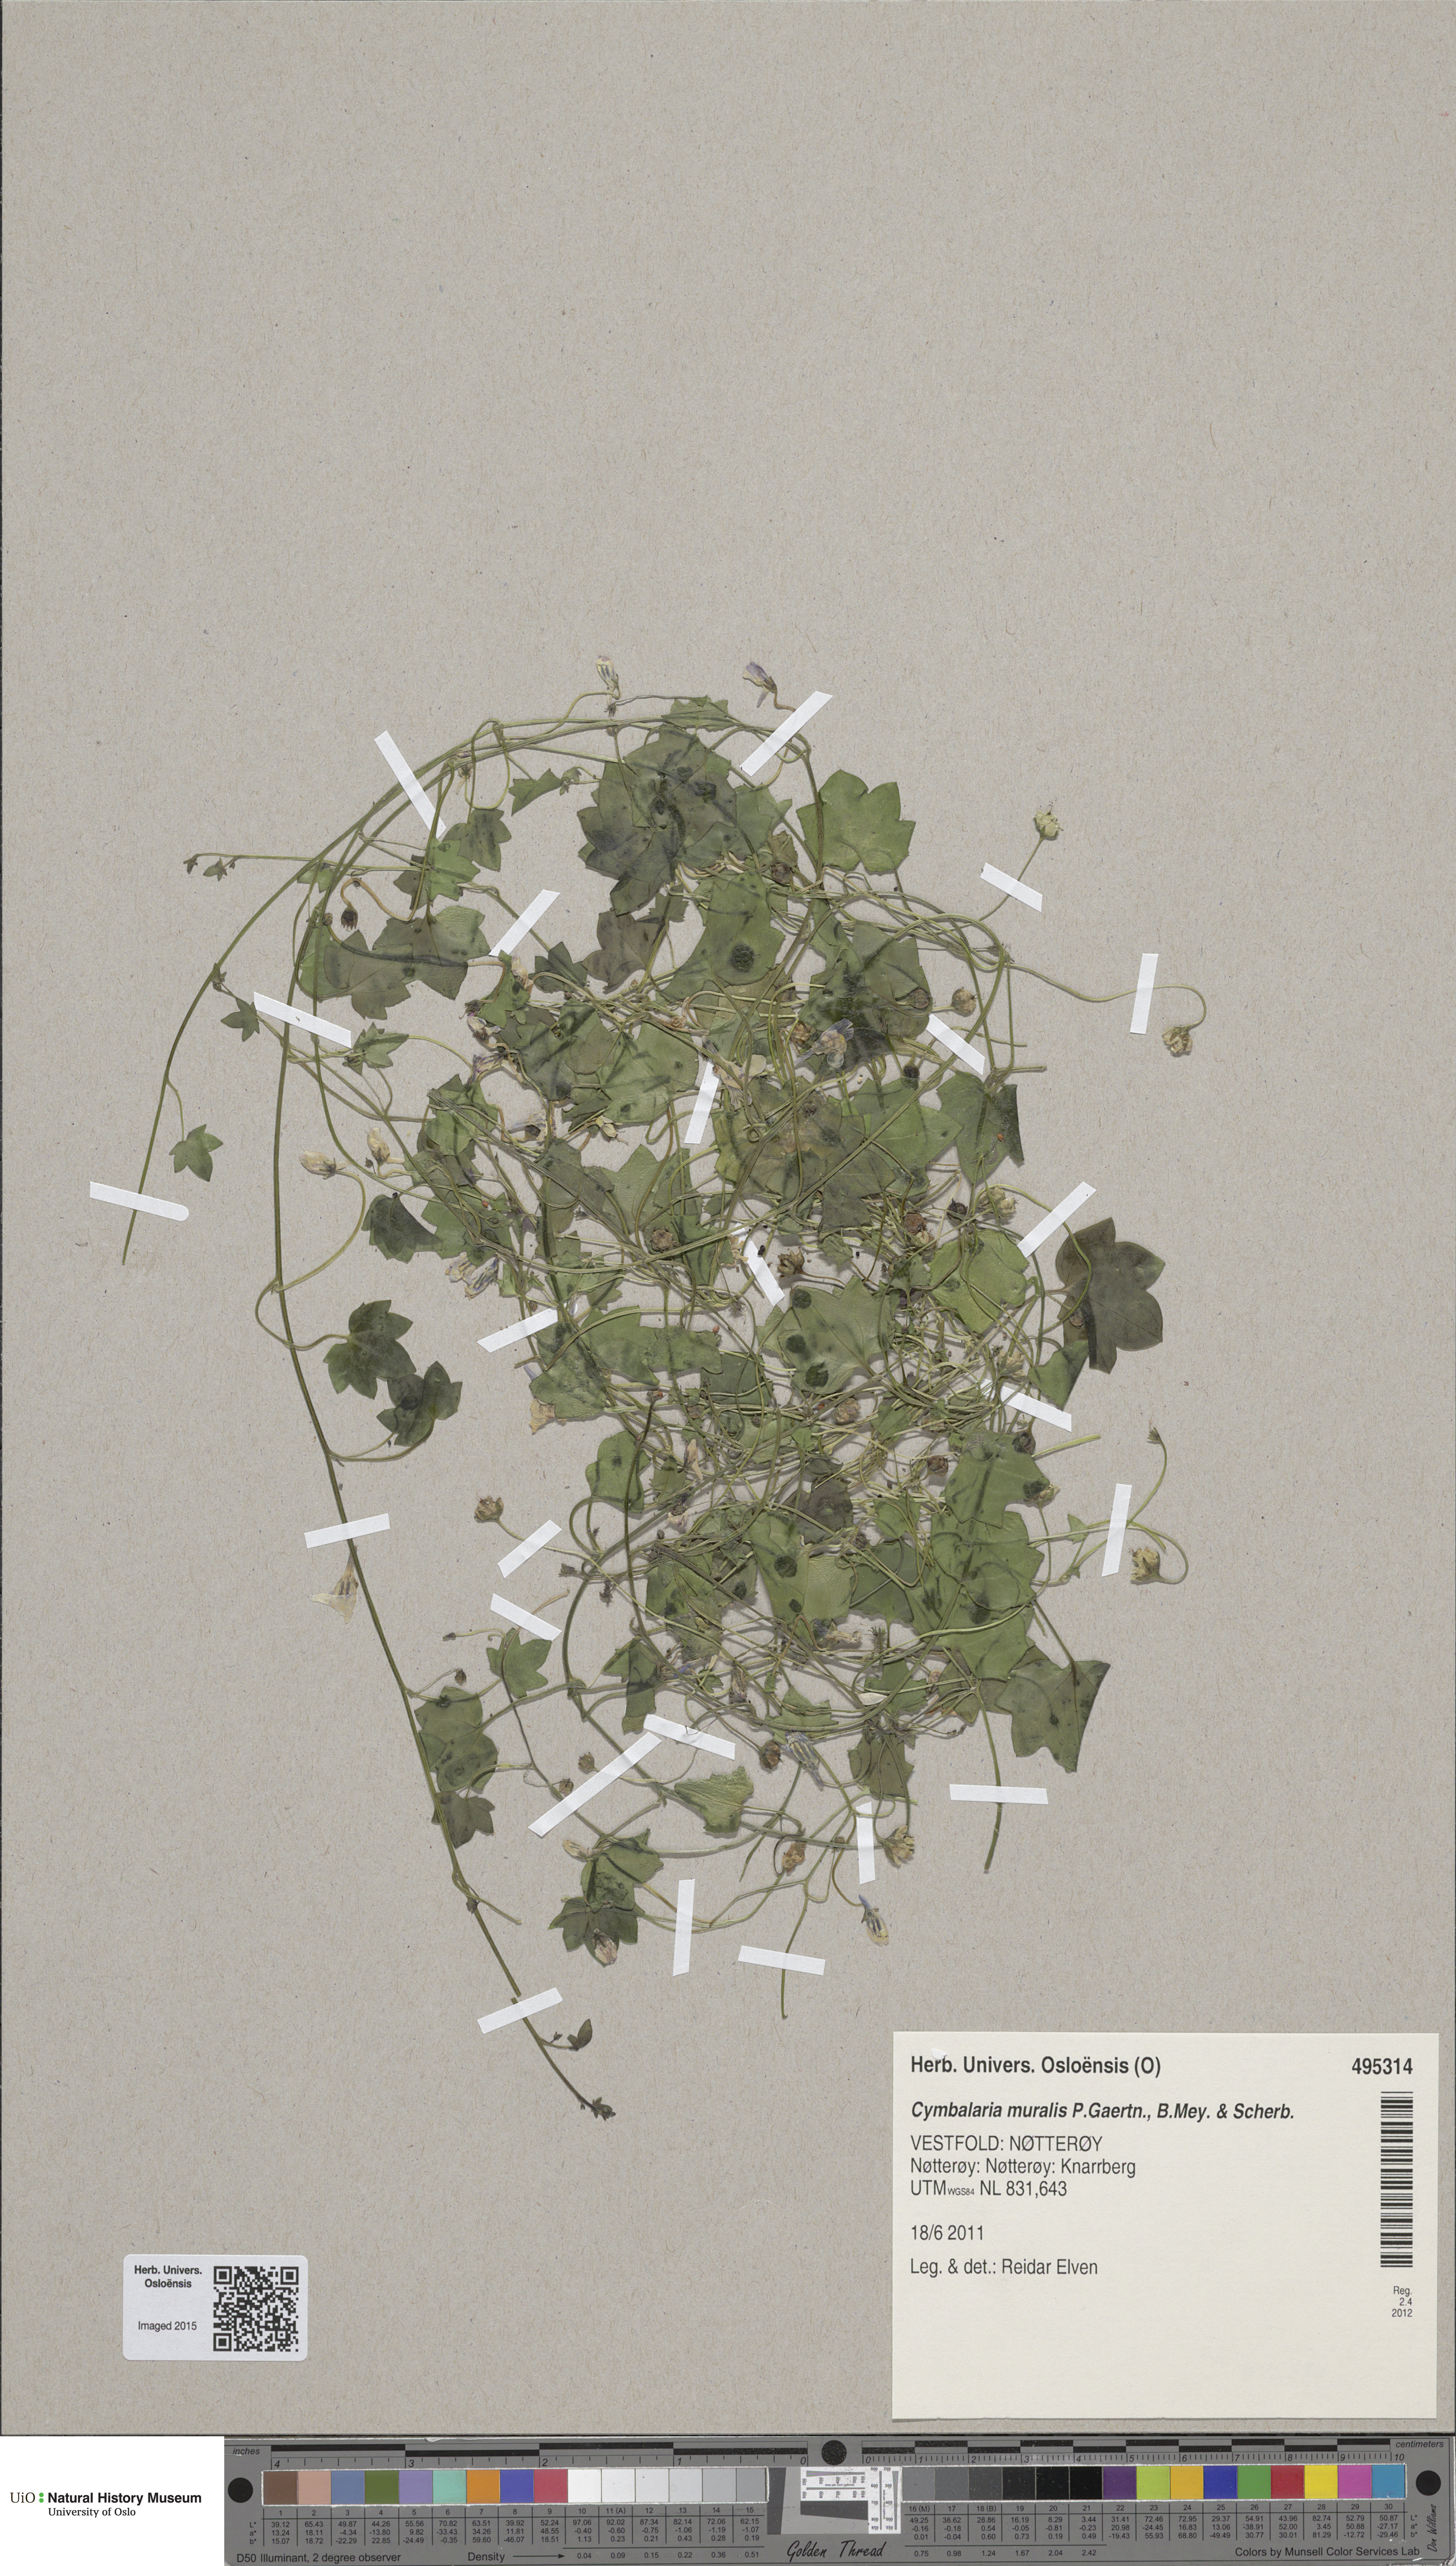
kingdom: Plantae
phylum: Tracheophyta
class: Magnoliopsida
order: Lamiales
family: Plantaginaceae
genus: Cymbalaria
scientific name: Cymbalaria muralis
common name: Ivy-leaved toadflax
